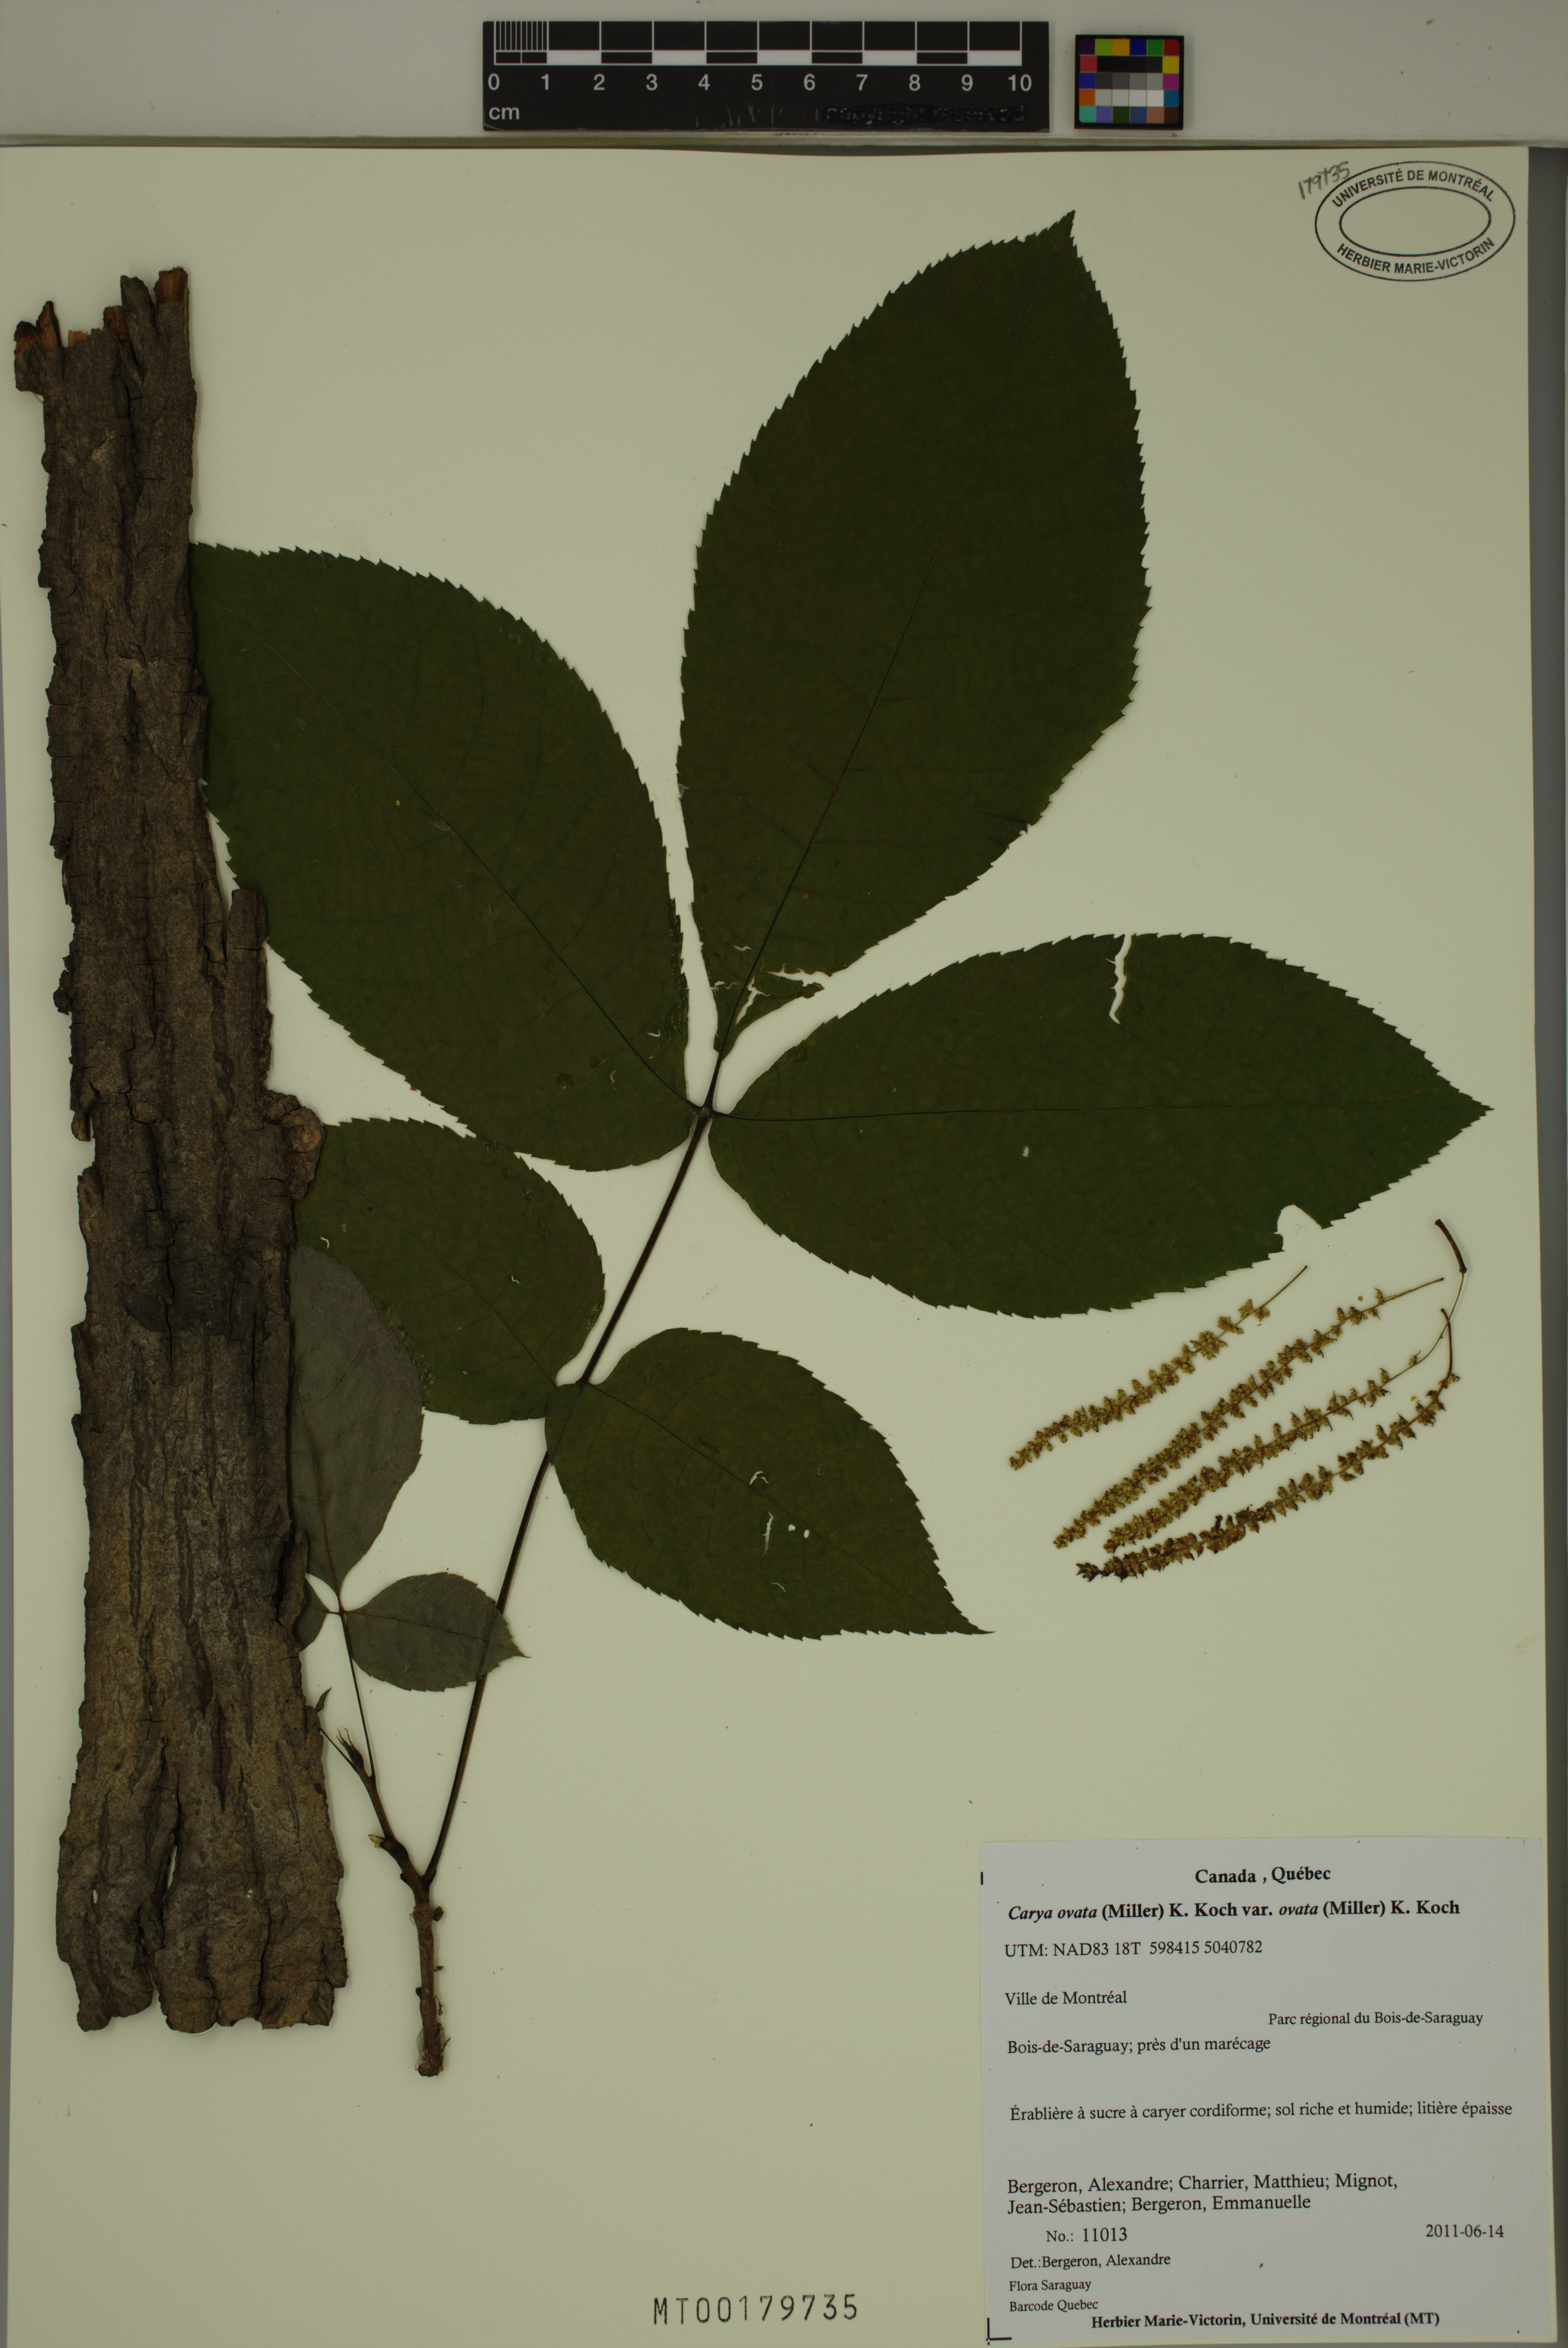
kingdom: Plantae
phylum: Tracheophyta
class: Magnoliopsida
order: Fagales
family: Juglandaceae
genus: Carya
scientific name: Carya ovata
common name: Shagbark hickory
